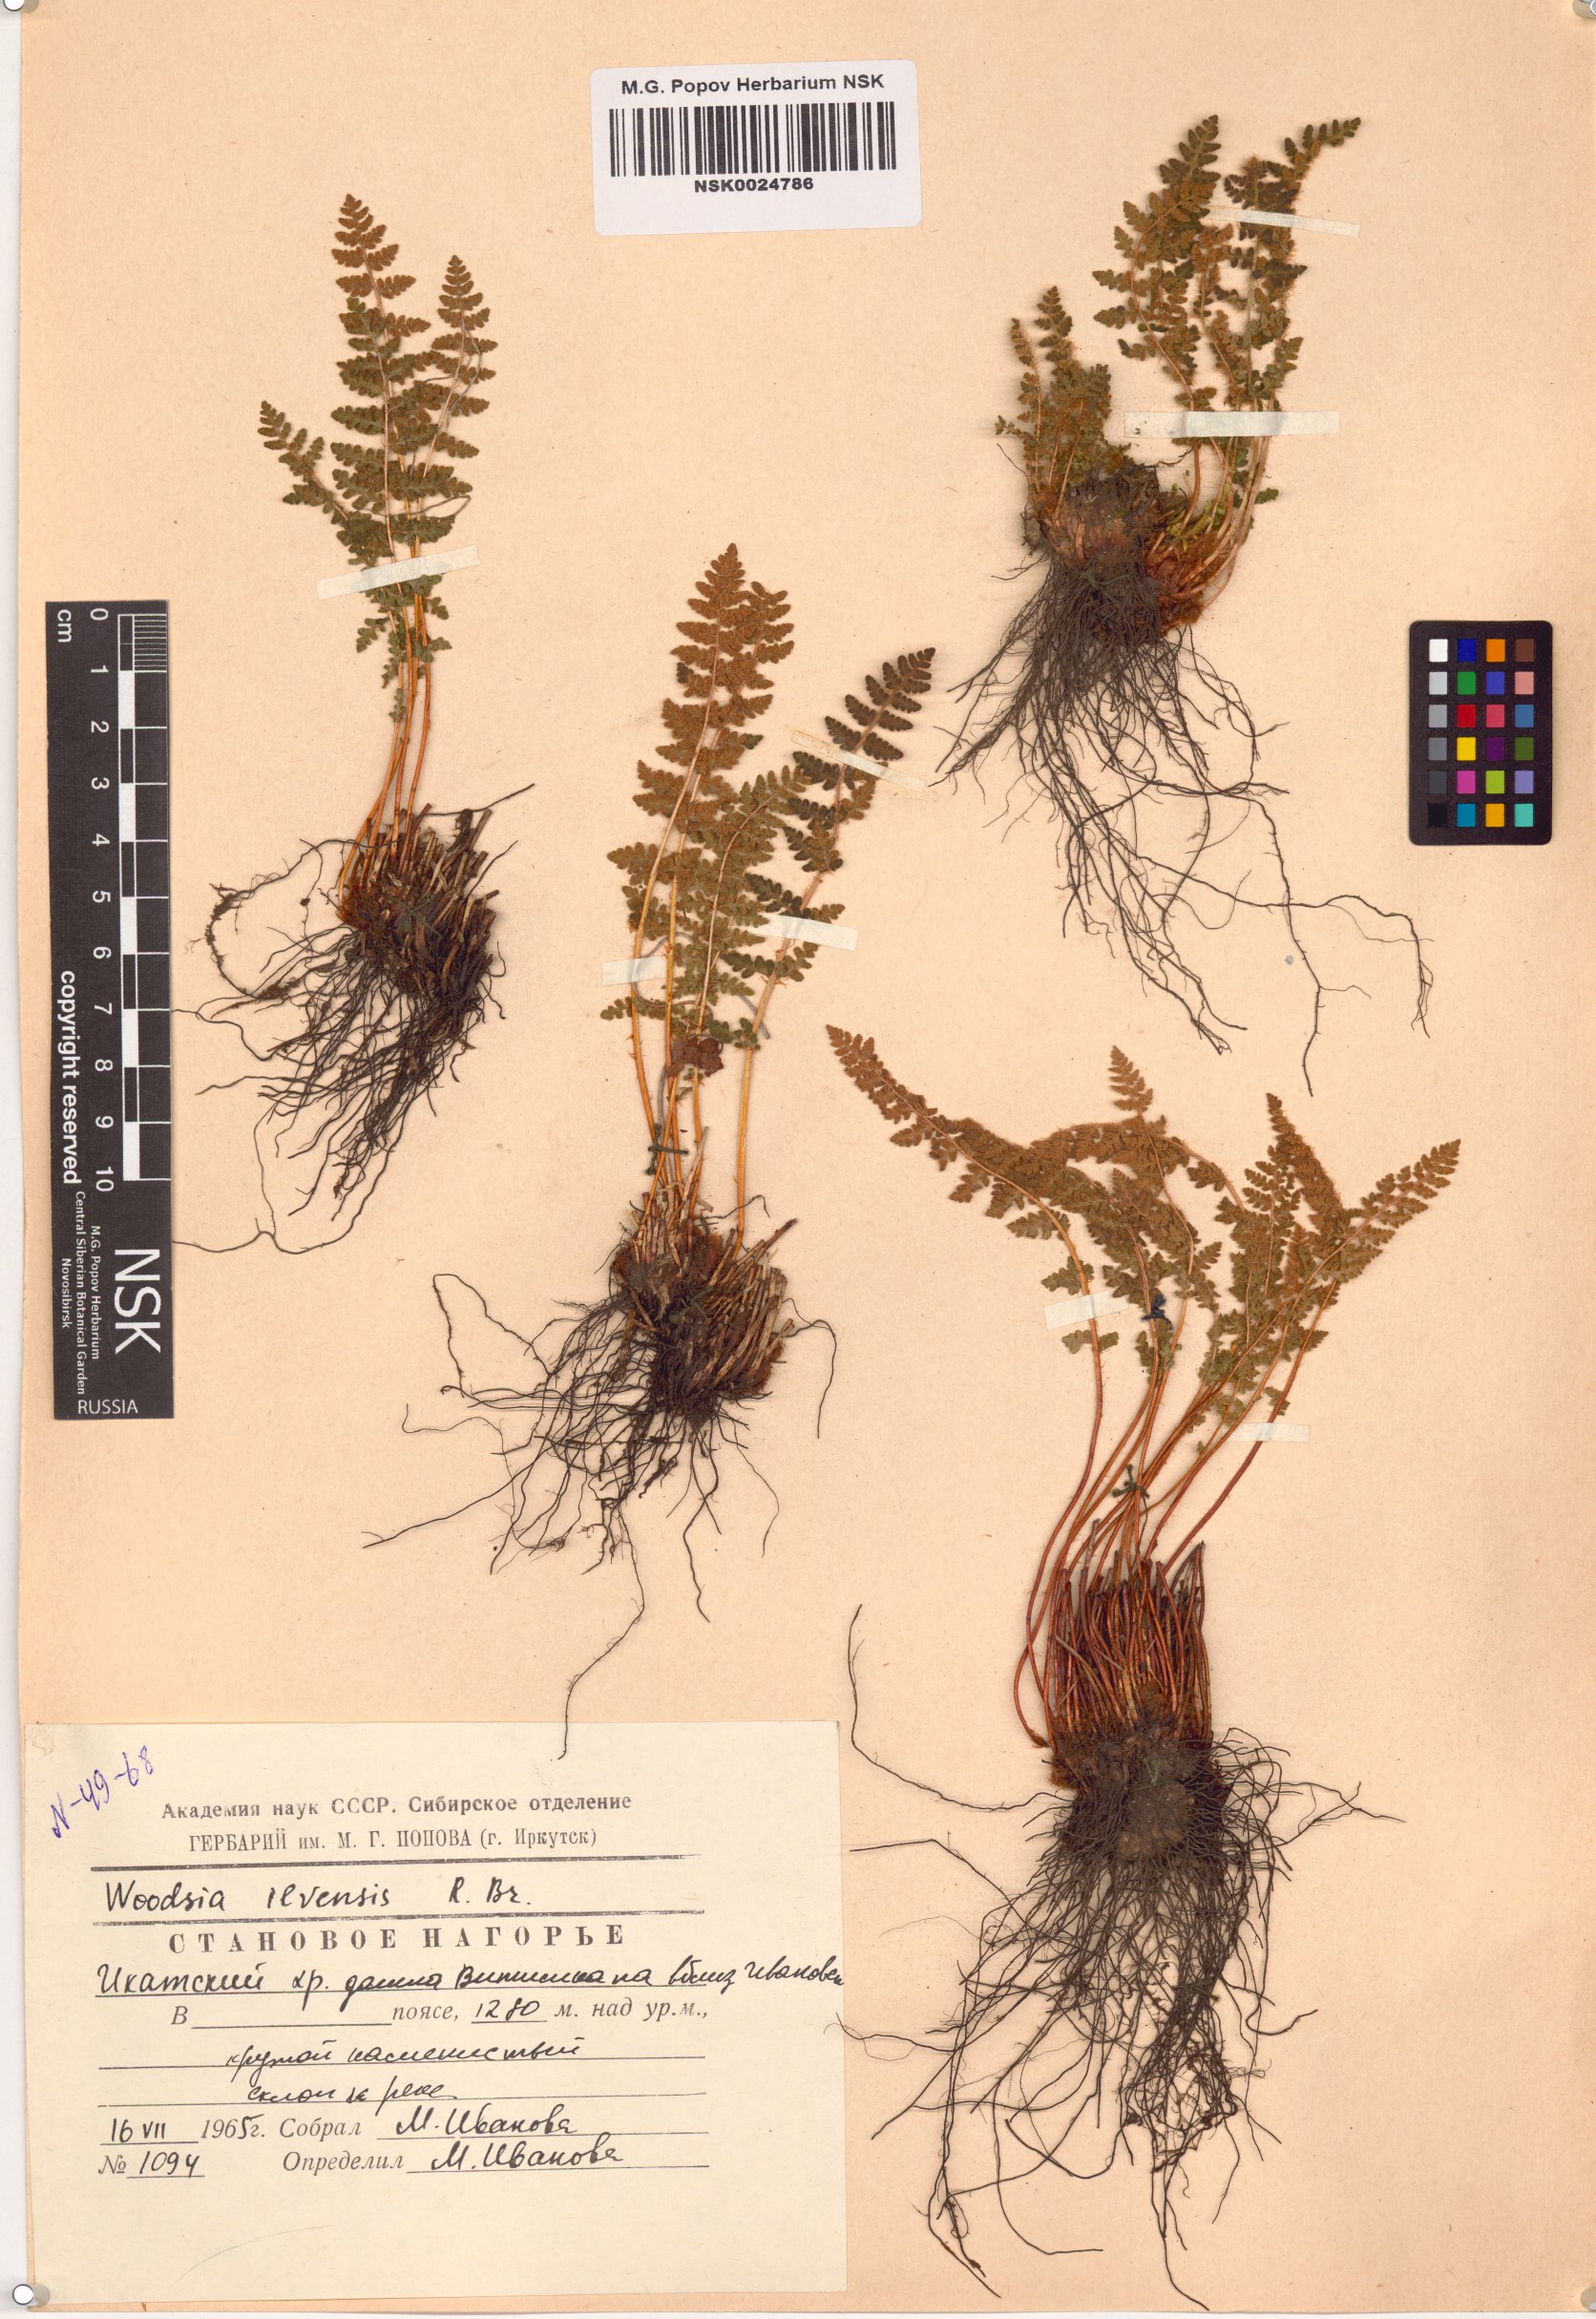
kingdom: Plantae
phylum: Tracheophyta
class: Polypodiopsida
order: Polypodiales
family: Woodsiaceae
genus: Woodsia
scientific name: Woodsia ilvensis
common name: Fragrant woodsia
